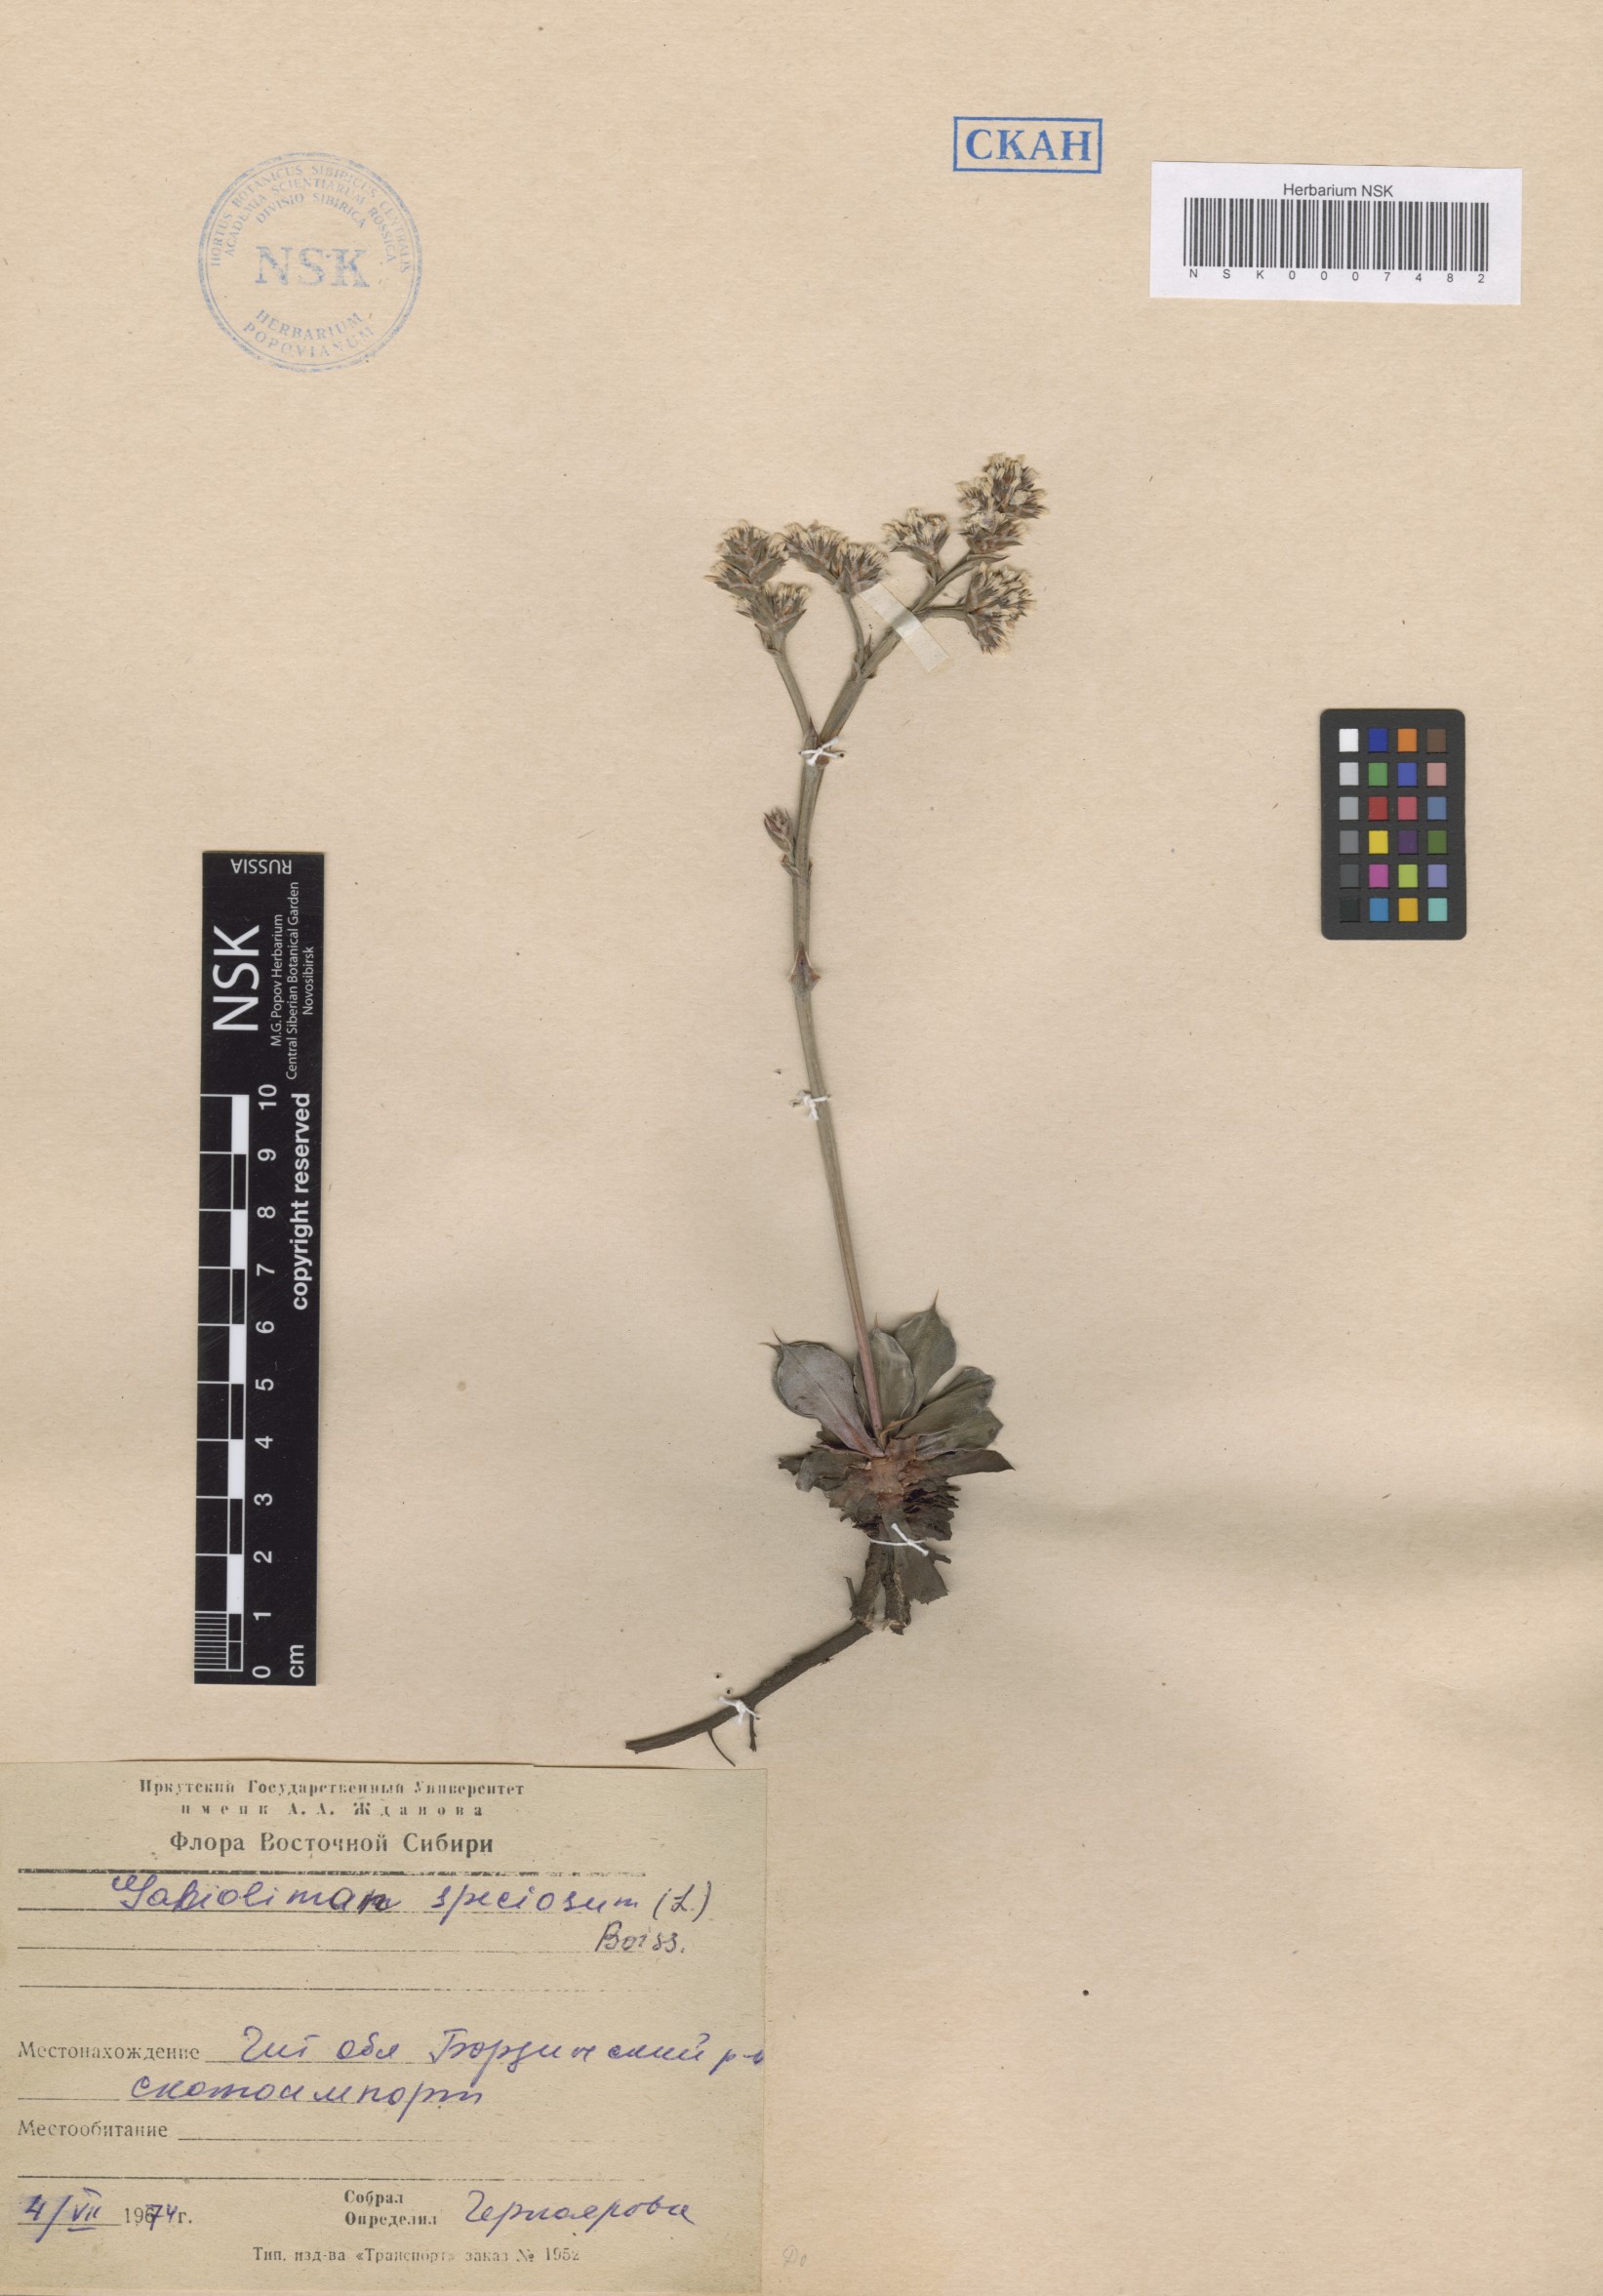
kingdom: Plantae
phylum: Tracheophyta
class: Magnoliopsida
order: Caryophyllales
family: Plumbaginaceae
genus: Goniolimon
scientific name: Goniolimon speciosum
